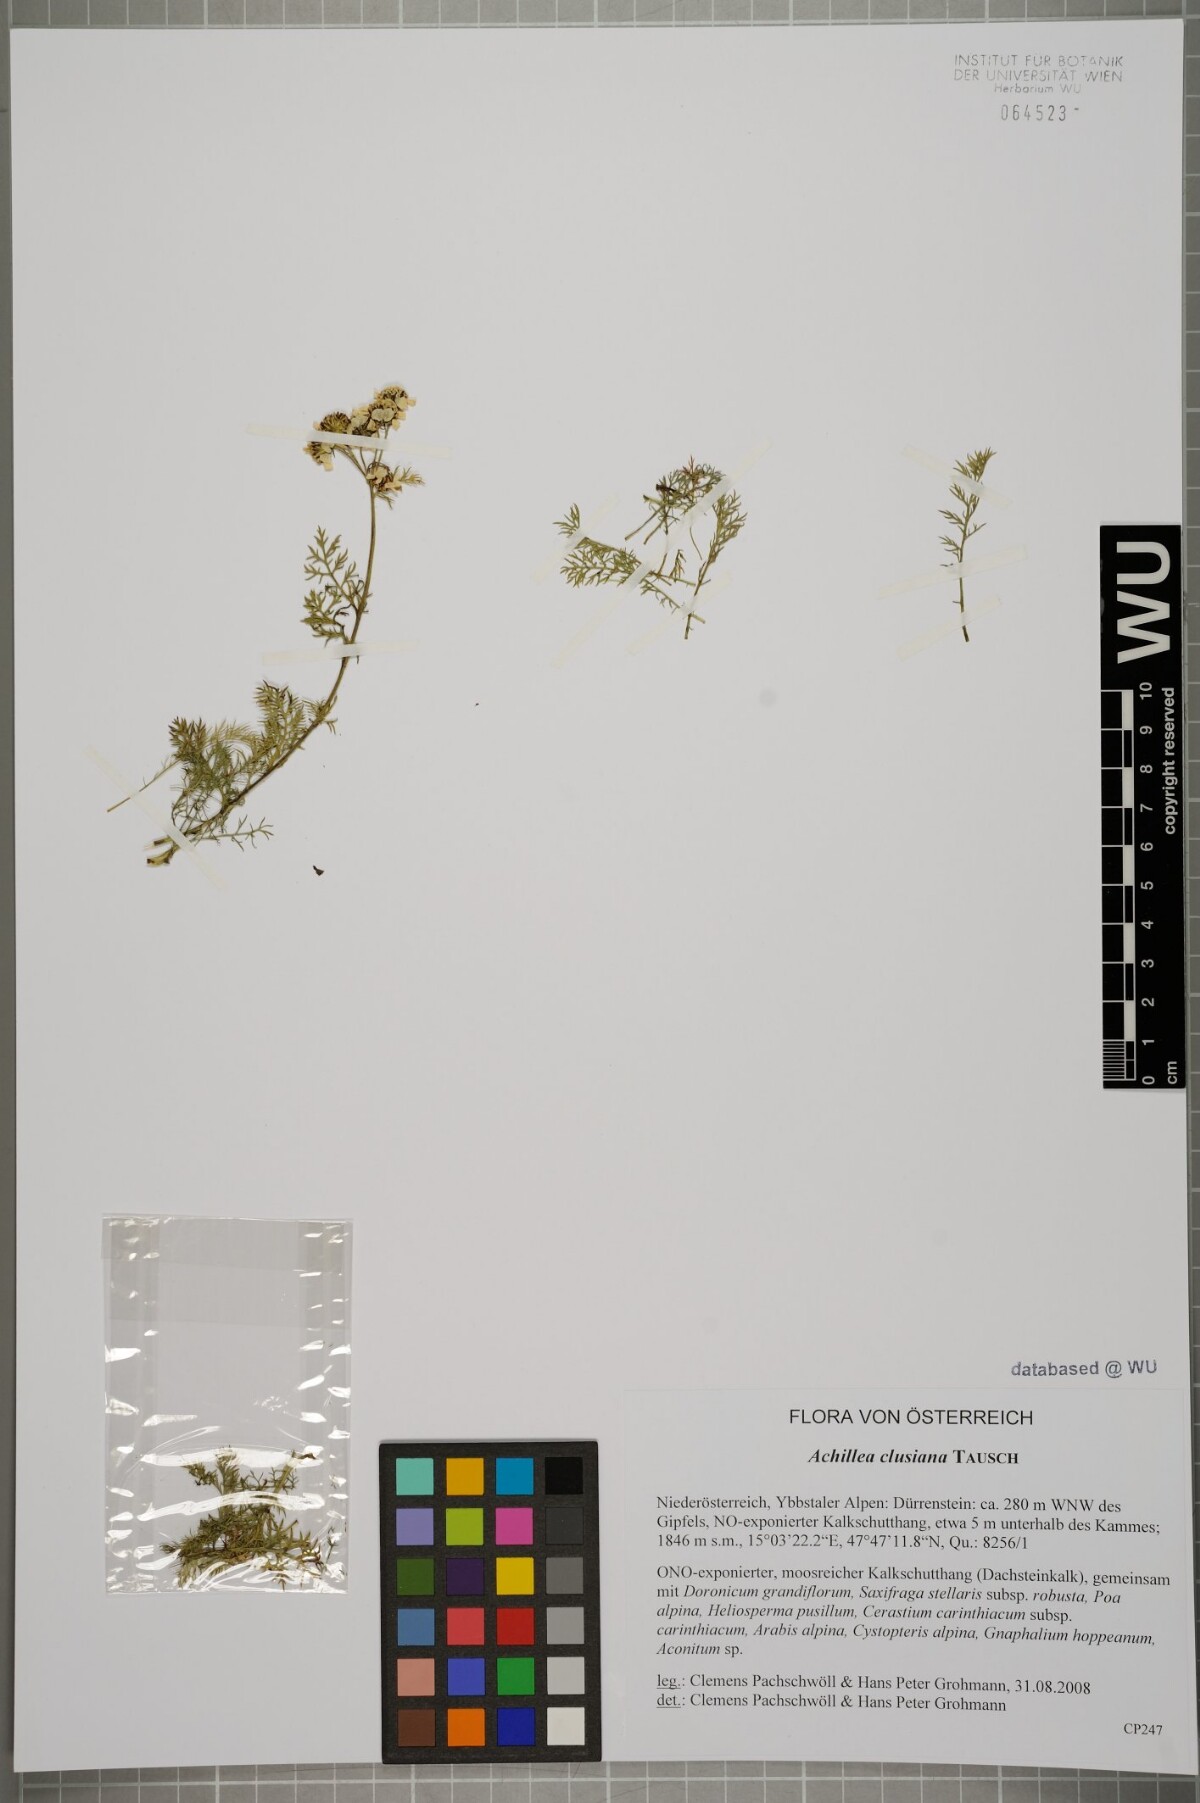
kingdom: Plantae
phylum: Tracheophyta
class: Magnoliopsida
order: Asterales
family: Asteraceae
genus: Achillea
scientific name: Achillea clusiana
